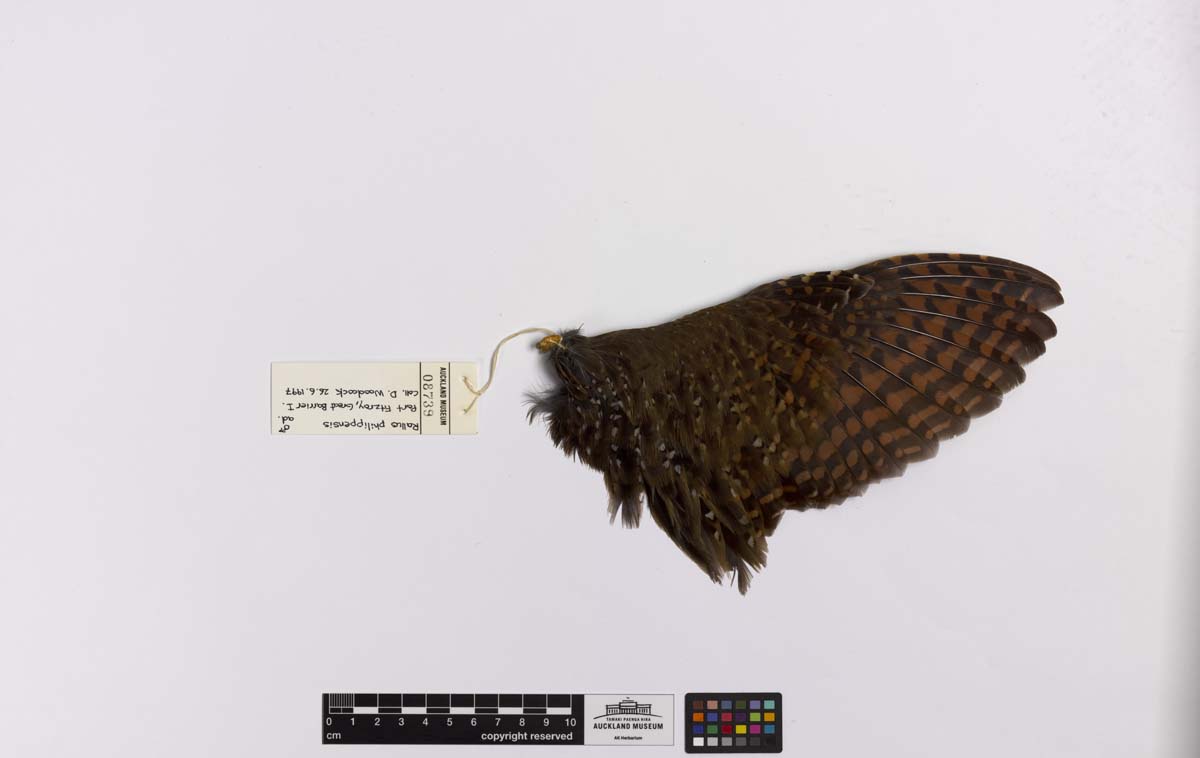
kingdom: Animalia
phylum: Chordata
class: Aves
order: Gruiformes
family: Rallidae
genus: Gallirallus
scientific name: Gallirallus philippensis
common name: Buff-banded rail
